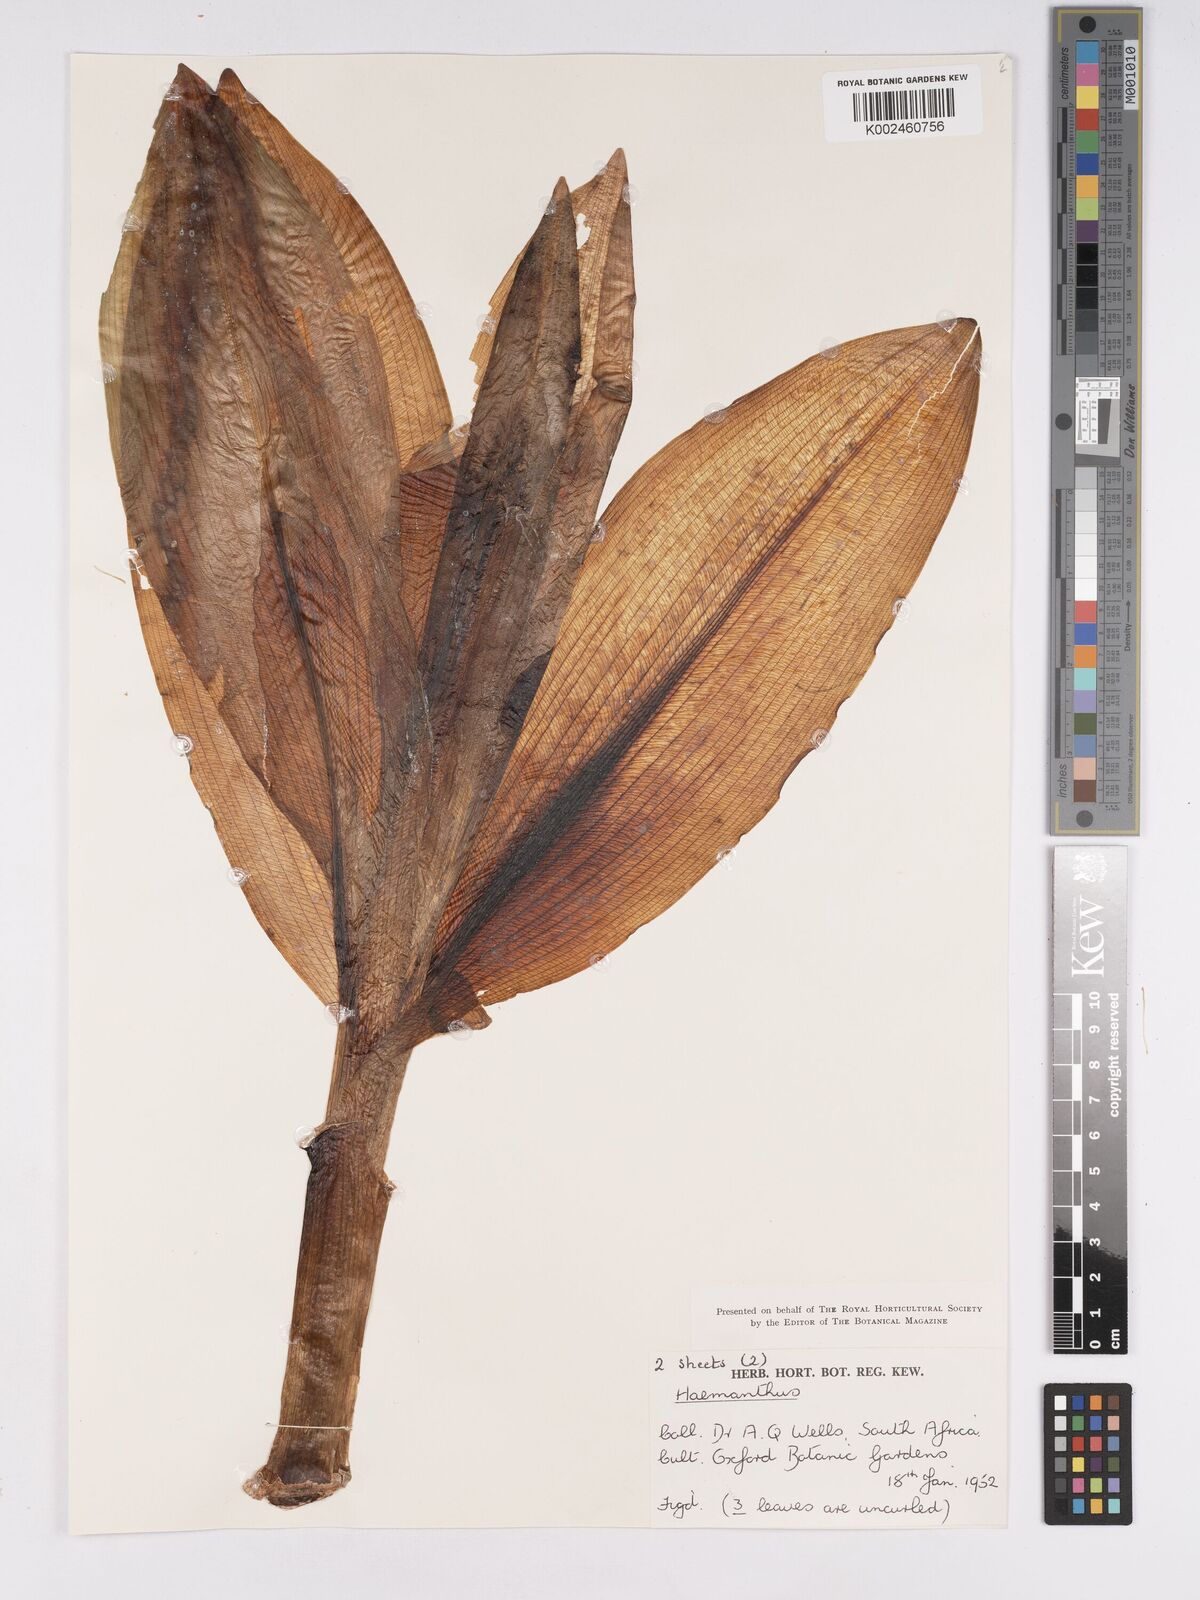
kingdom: Plantae
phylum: Tracheophyta
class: Liliopsida
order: Asparagales
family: Amaryllidaceae
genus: Scadoxus
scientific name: Scadoxus puniceus
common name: Royal-paintbrush
